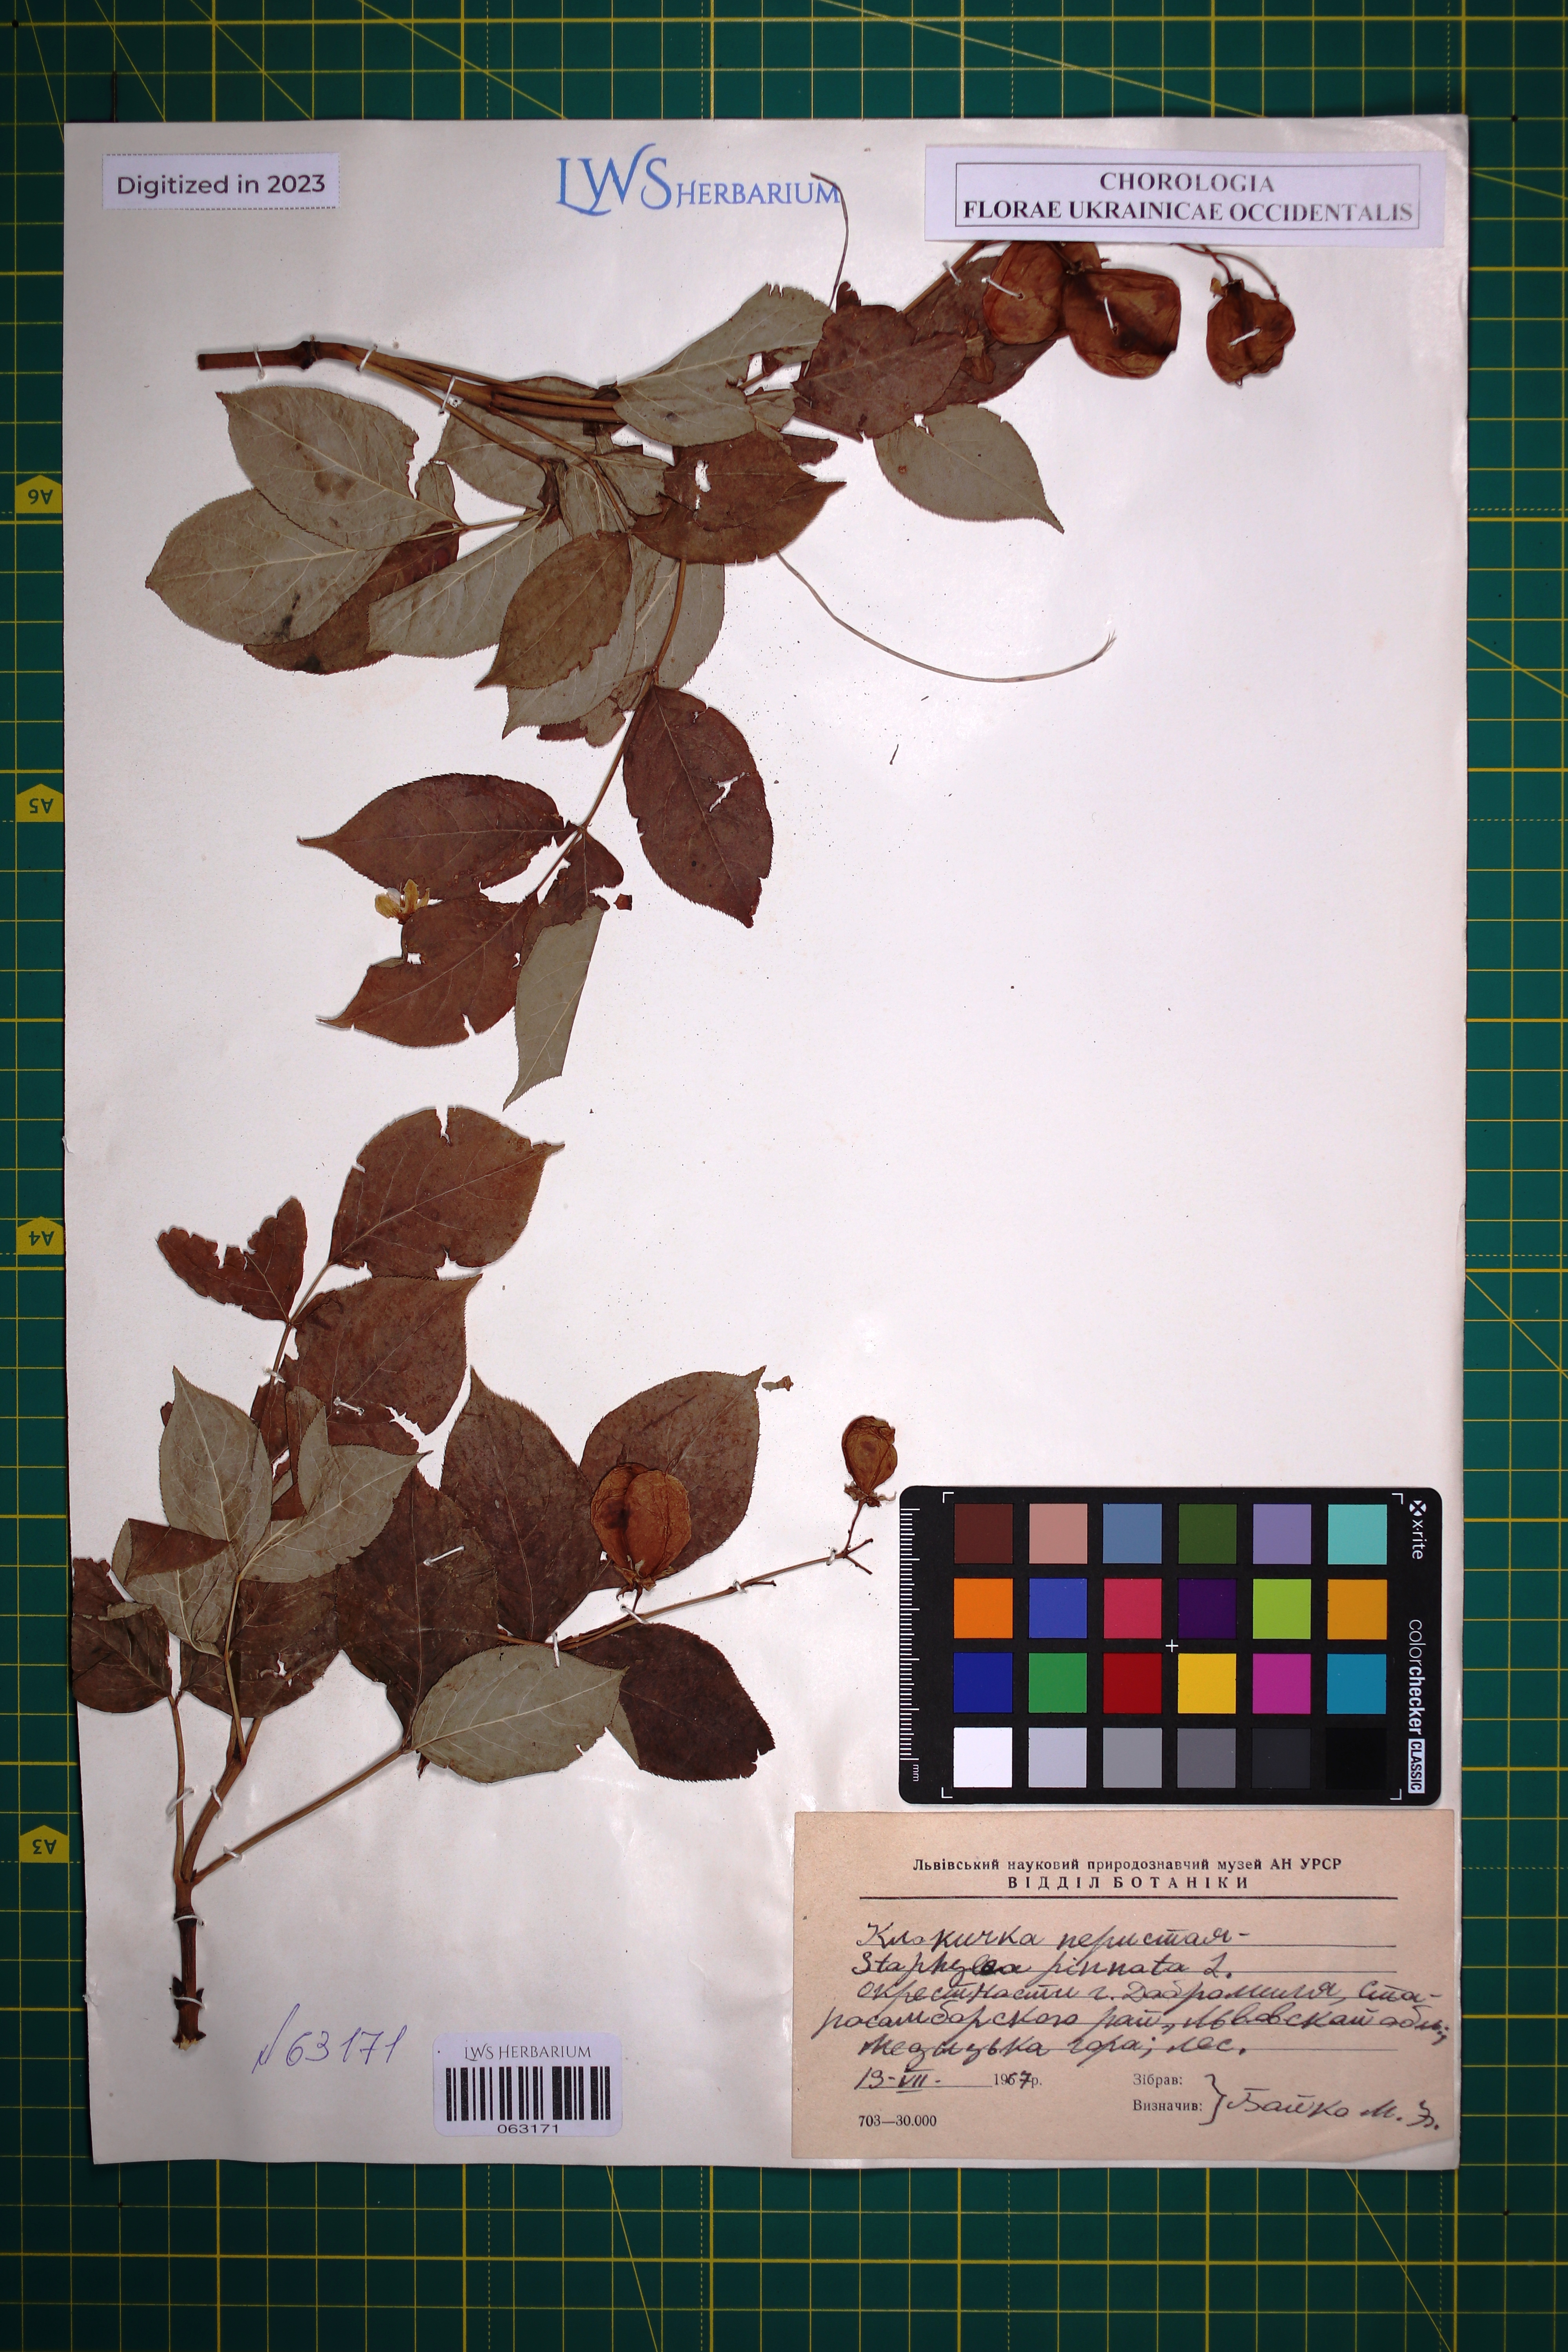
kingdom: Plantae
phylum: Tracheophyta
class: Magnoliopsida
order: Crossosomatales
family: Staphyleaceae
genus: Staphylea
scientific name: Staphylea pinnata
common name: Bladdernut
